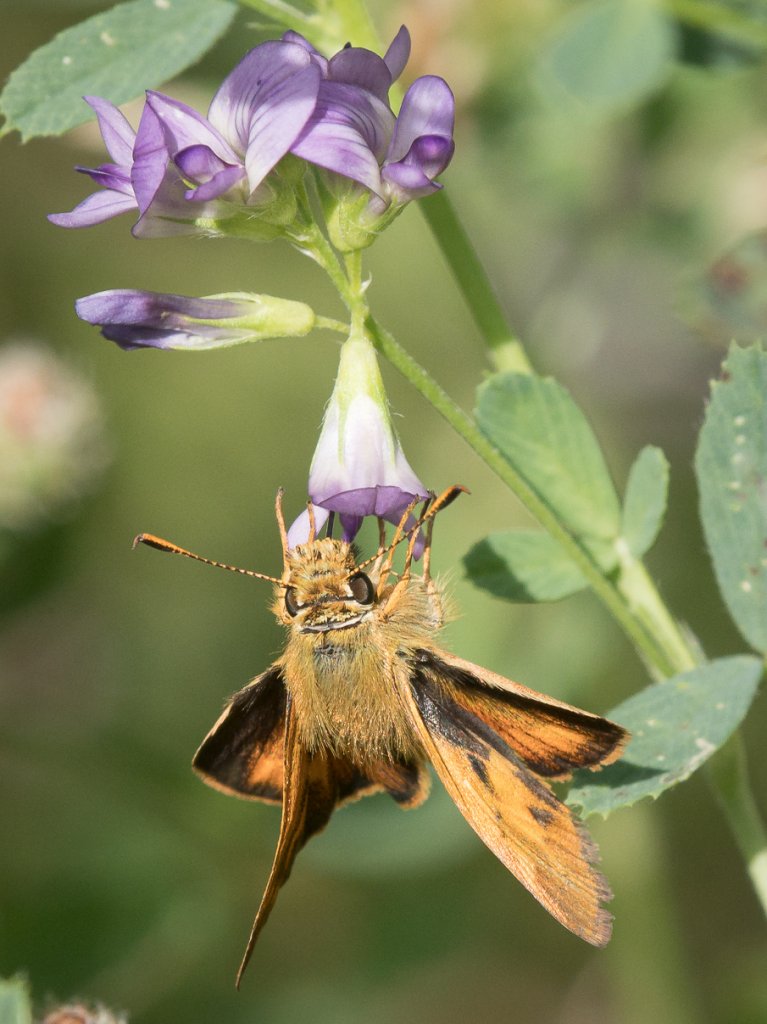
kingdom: Animalia
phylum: Arthropoda
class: Insecta
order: Lepidoptera
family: Hesperiidae
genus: Ochlodes
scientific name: Ochlodes sylvanoides
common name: Woodland Skipper
